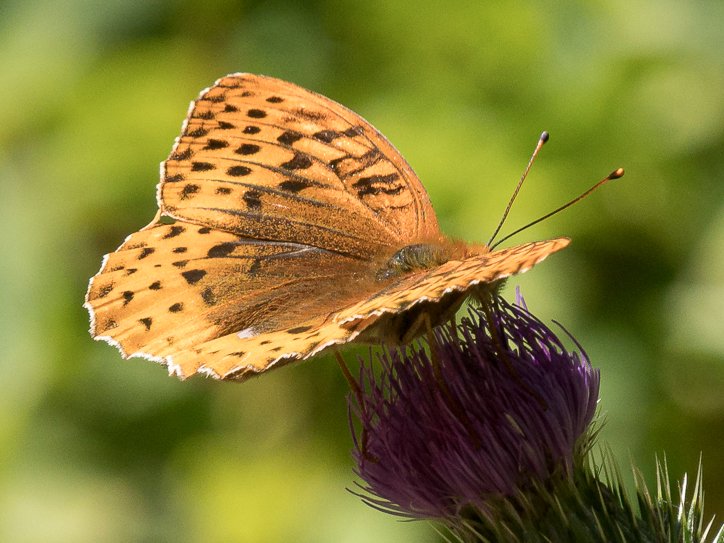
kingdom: Animalia
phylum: Arthropoda
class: Insecta
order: Lepidoptera
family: Nymphalidae
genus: Speyeria
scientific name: Speyeria cybele
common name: Great Spangled Fritillary
